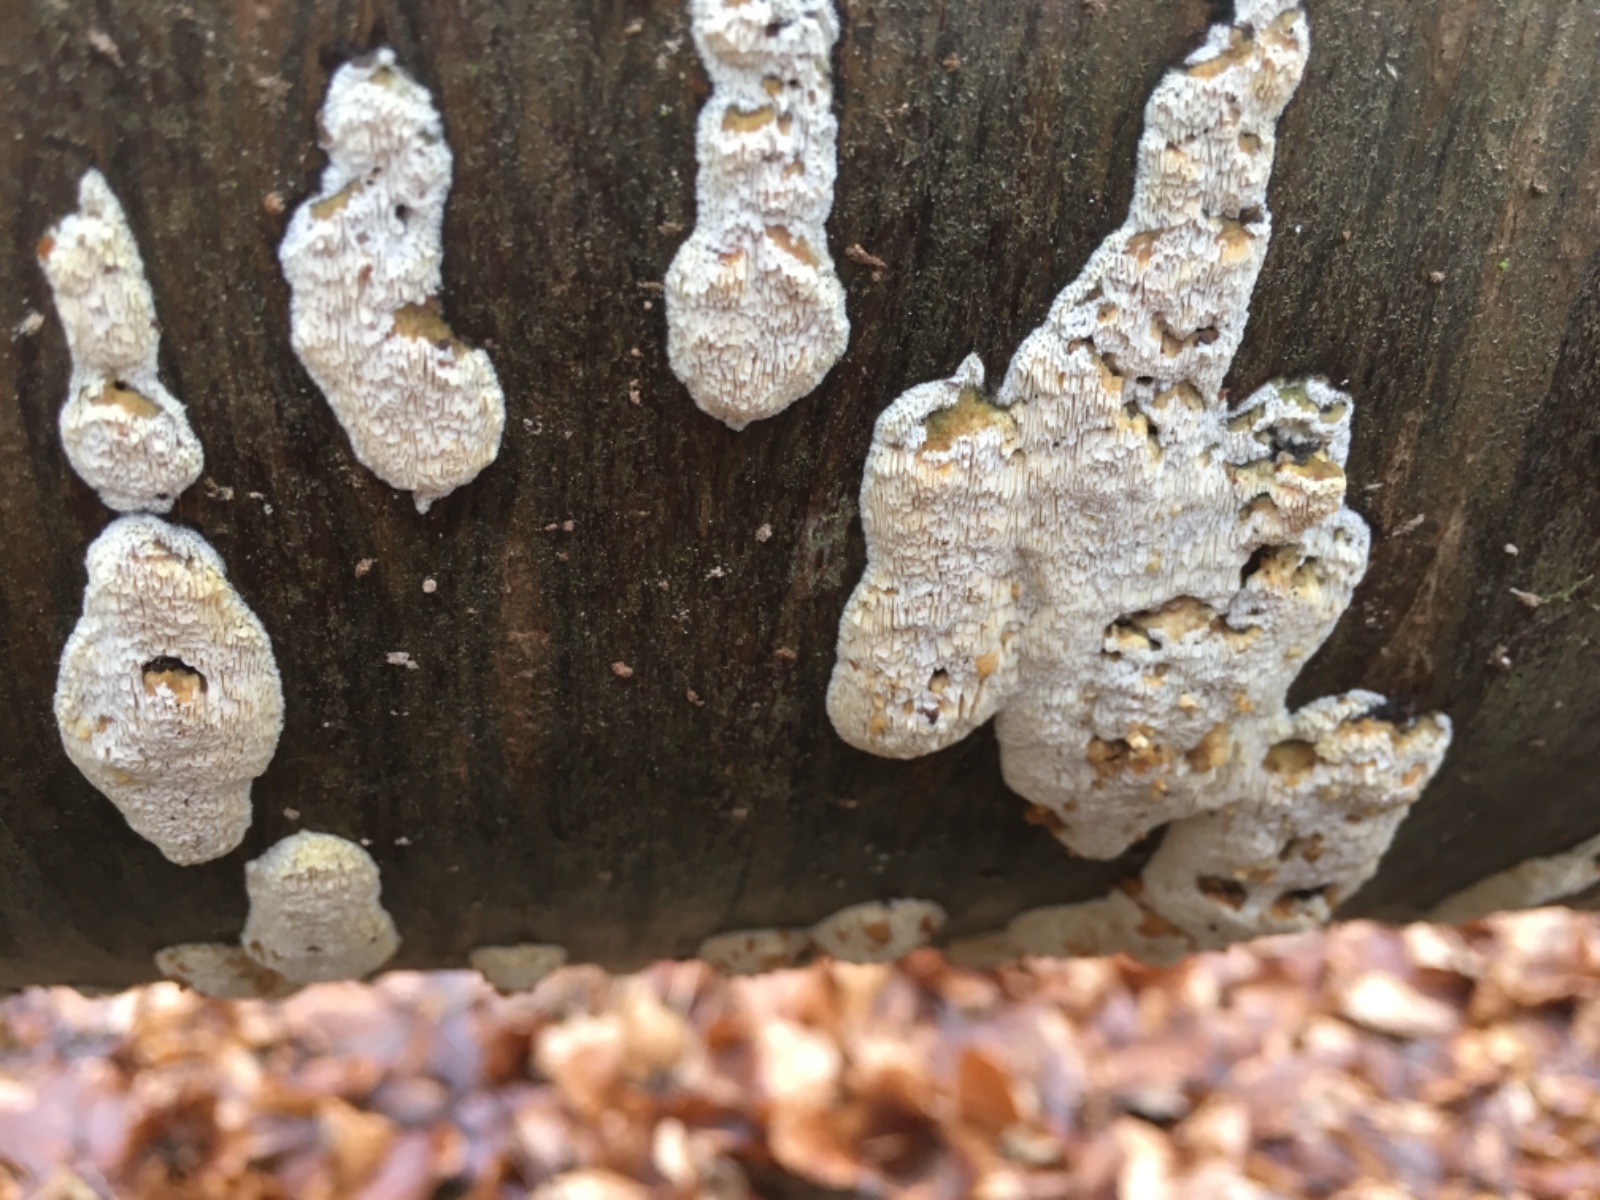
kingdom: Fungi
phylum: Basidiomycota
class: Agaricomycetes
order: Polyporales
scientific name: Polyporales
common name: poresvampordenen
